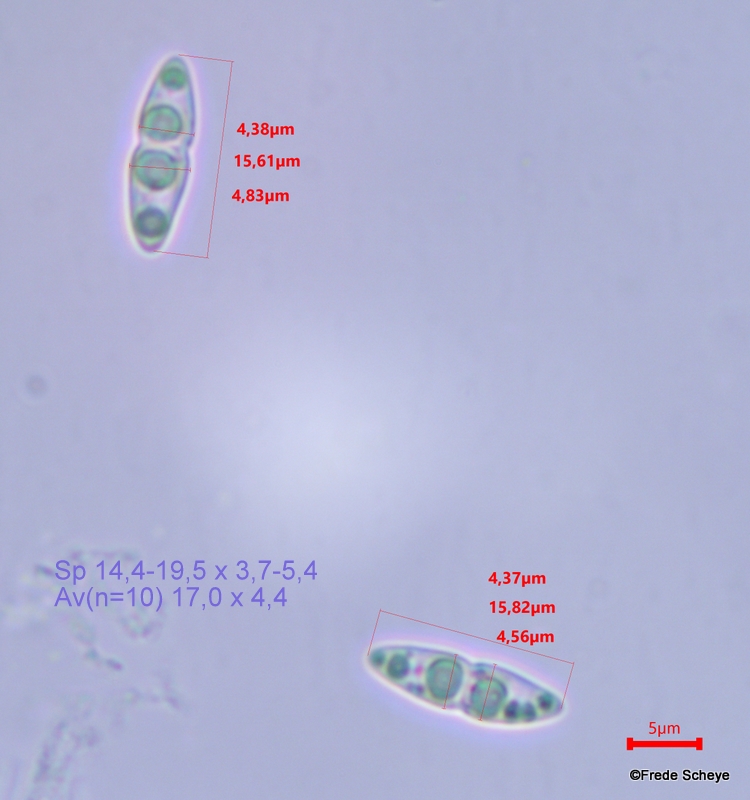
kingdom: Fungi
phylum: Ascomycota
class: Sordariomycetes
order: Diaporthales
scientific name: Diaporthales
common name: kulknippeordenen
